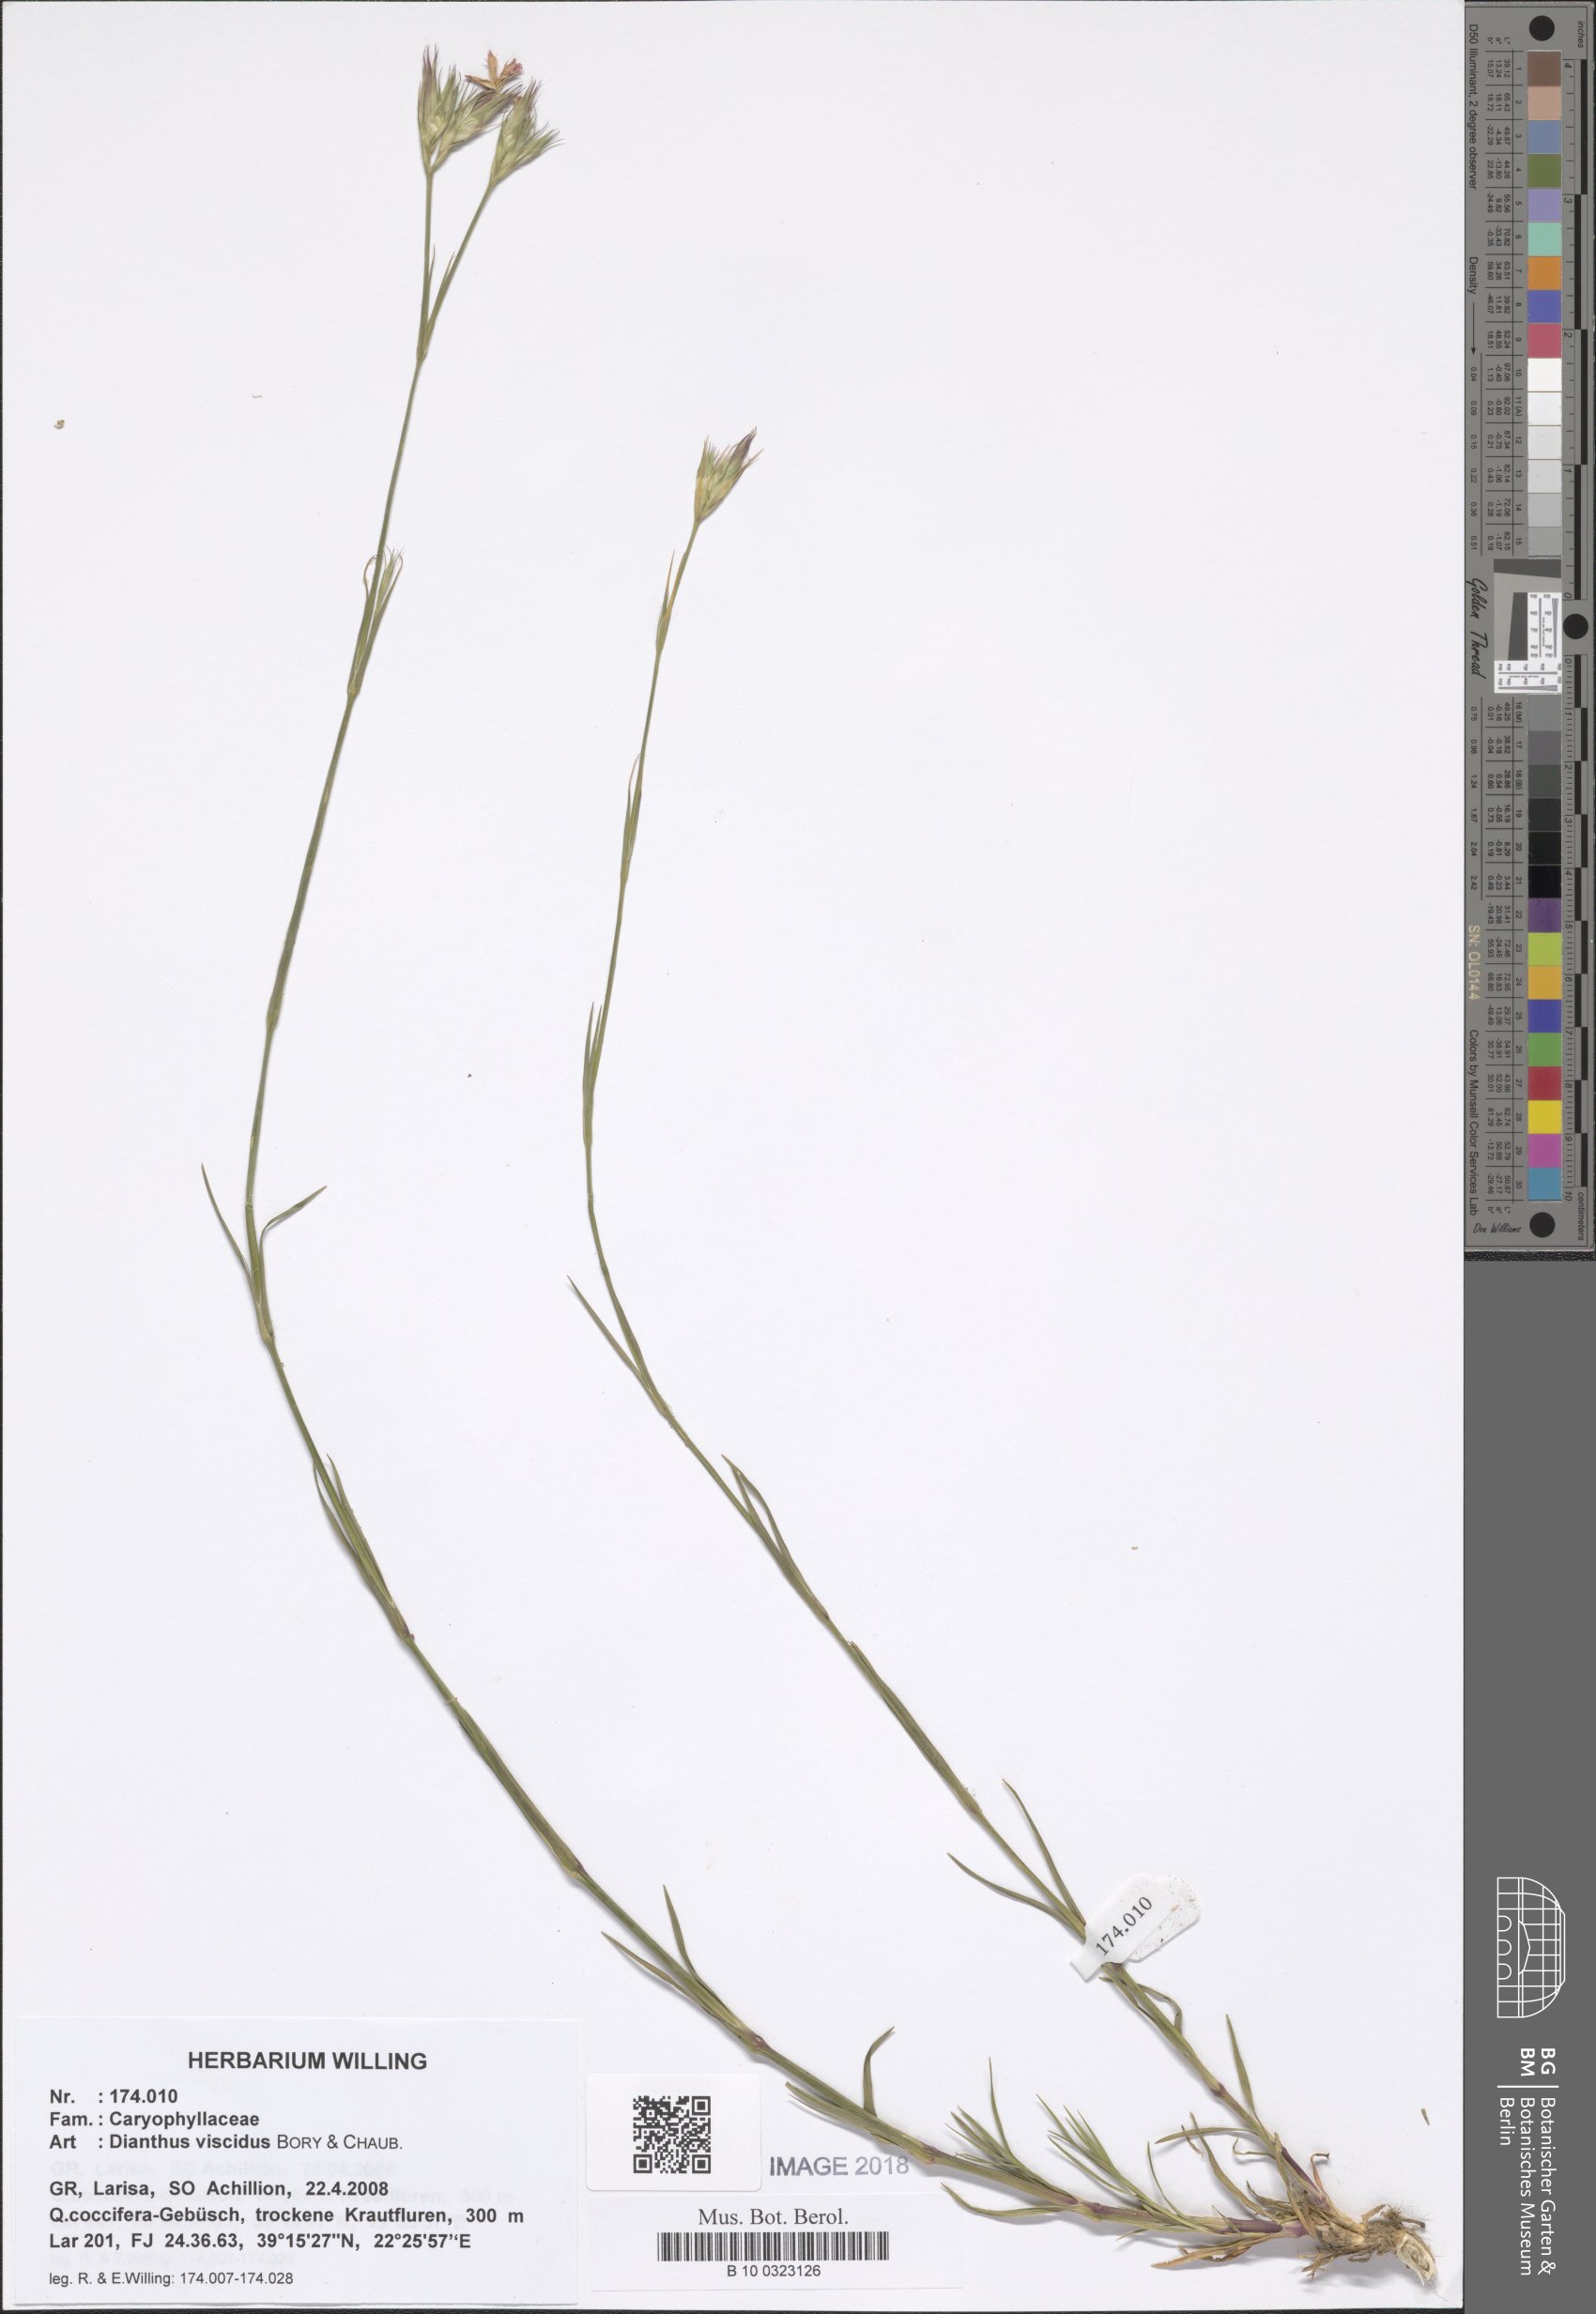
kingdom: Plantae
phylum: Tracheophyta
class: Magnoliopsida
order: Caryophyllales
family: Caryophyllaceae
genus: Dianthus
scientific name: Dianthus viscidus
